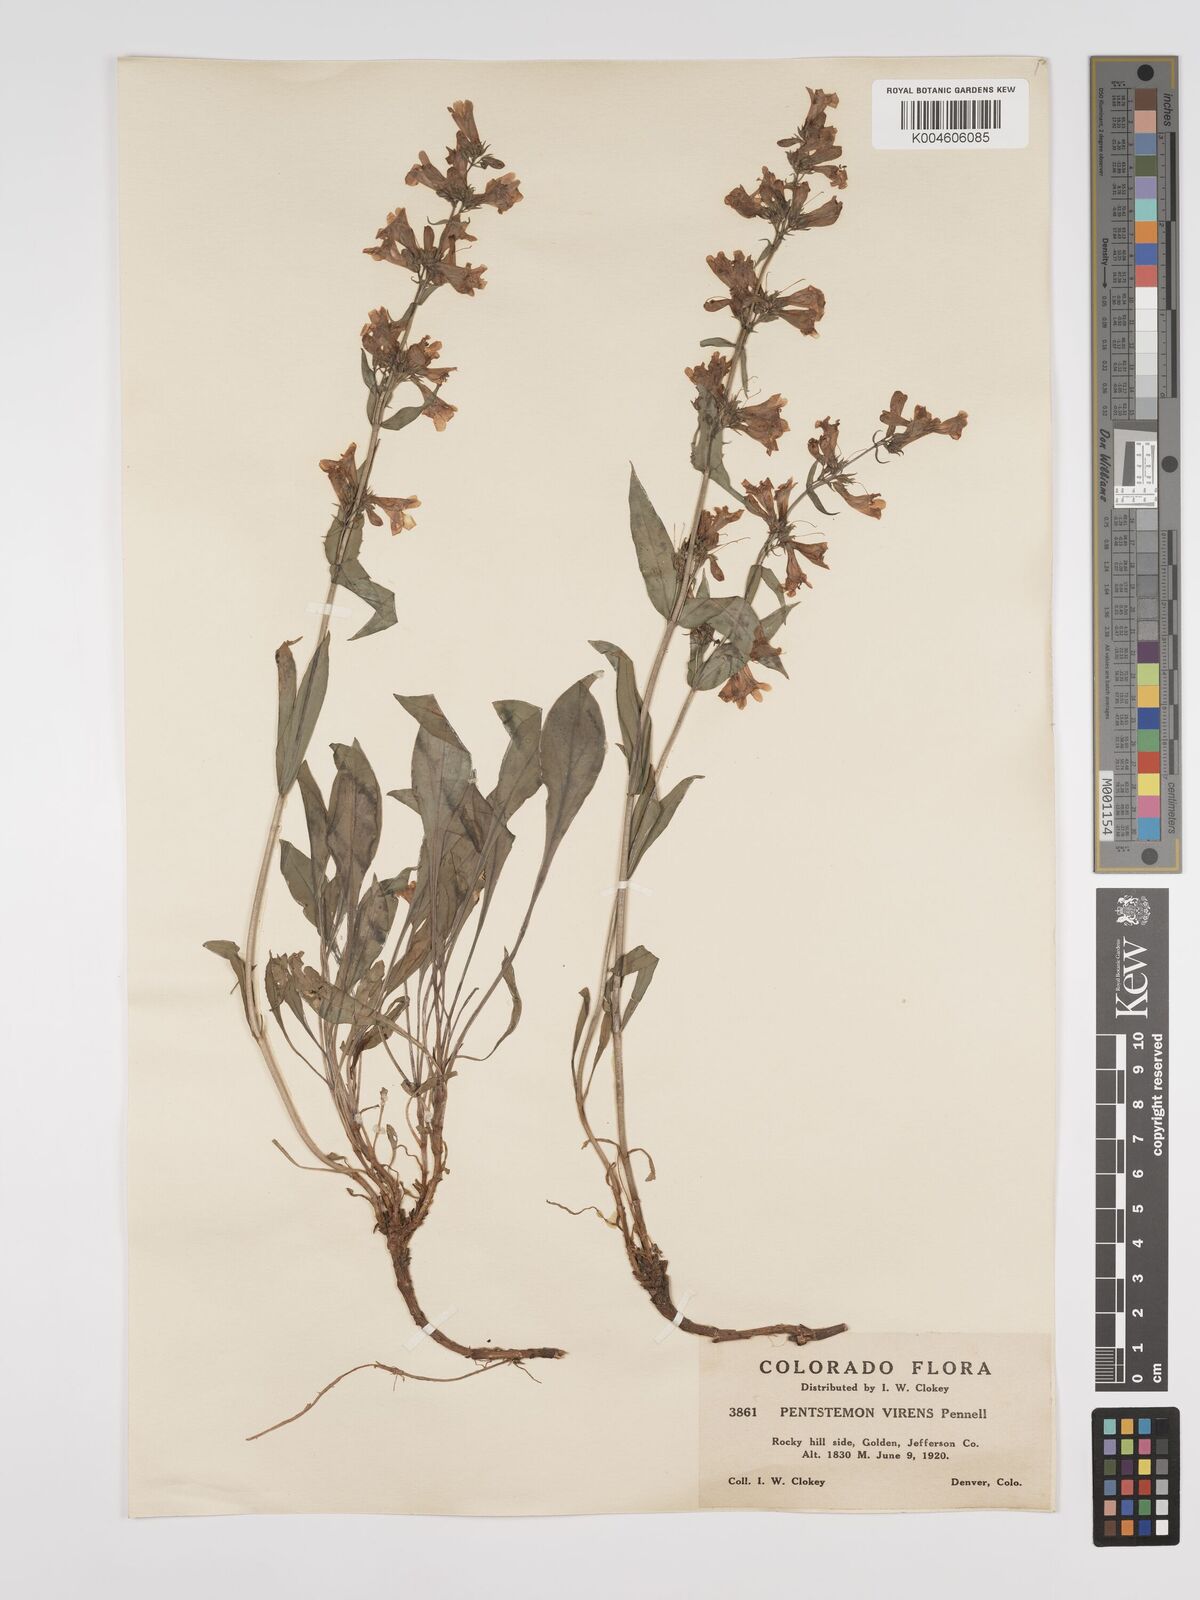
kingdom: Plantae
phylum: Tracheophyta
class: Magnoliopsida
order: Lamiales
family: Plantaginaceae
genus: Penstemon
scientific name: Penstemon virens
